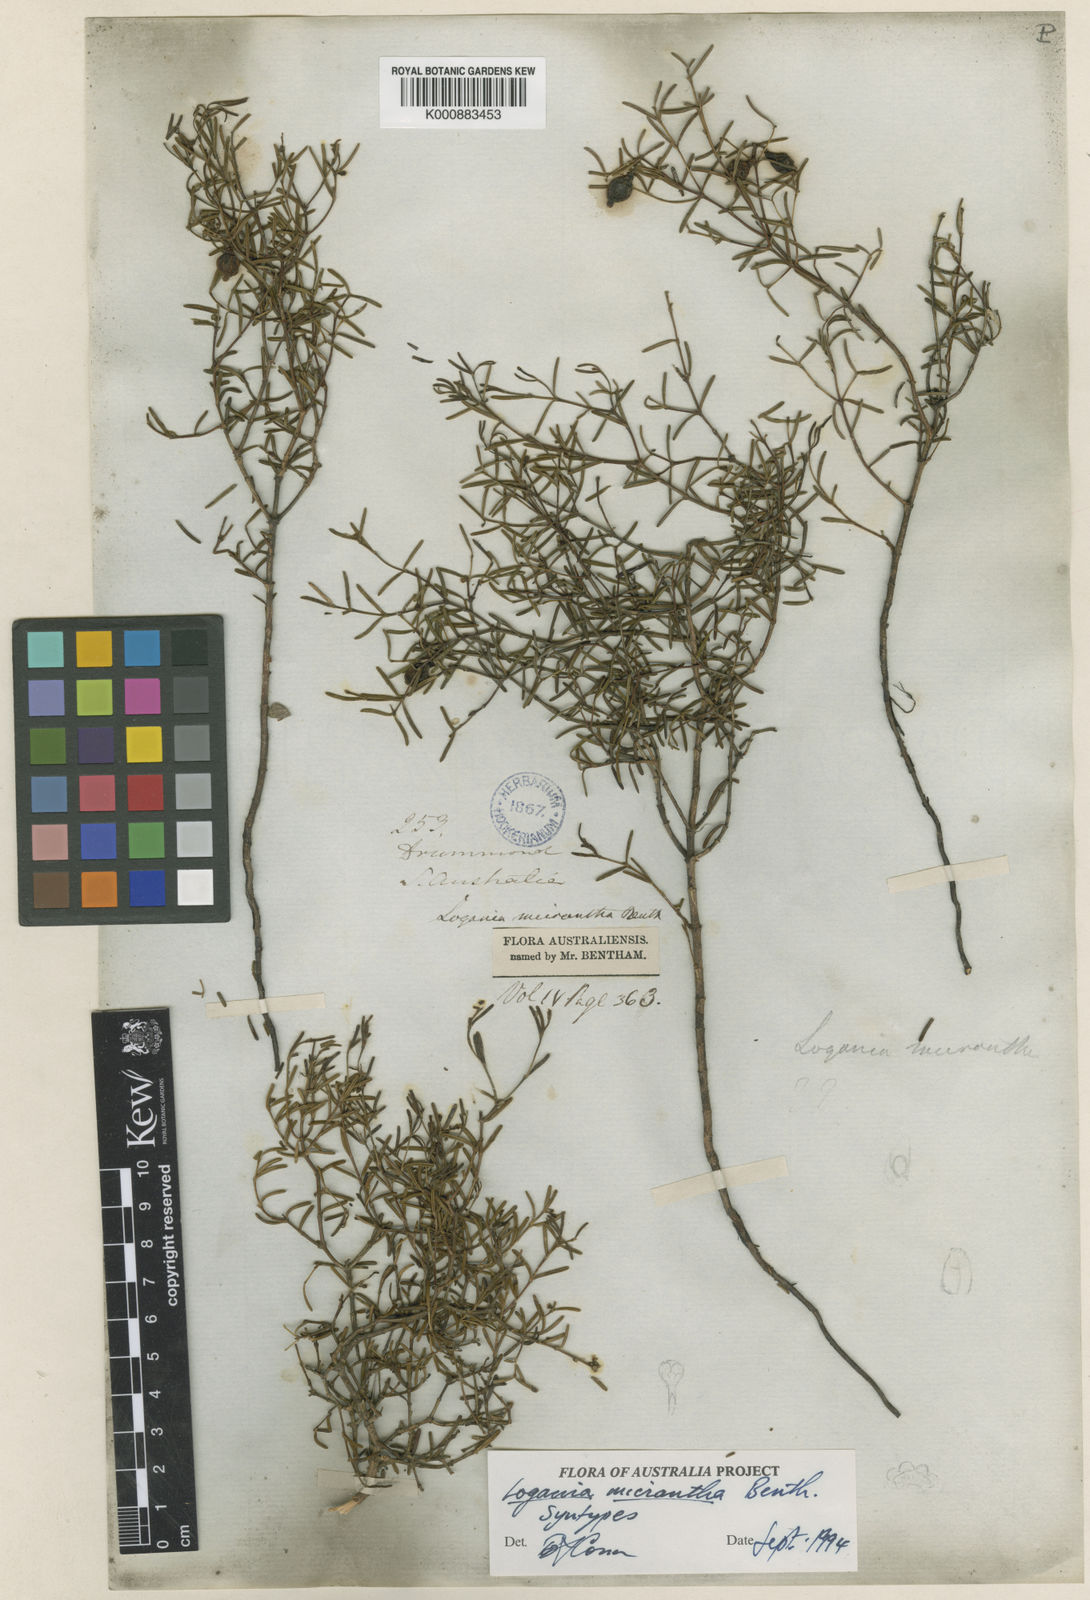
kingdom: Plantae
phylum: Tracheophyta
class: Magnoliopsida
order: Gentianales
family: Loganiaceae
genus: Logania
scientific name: Logania micrantha
